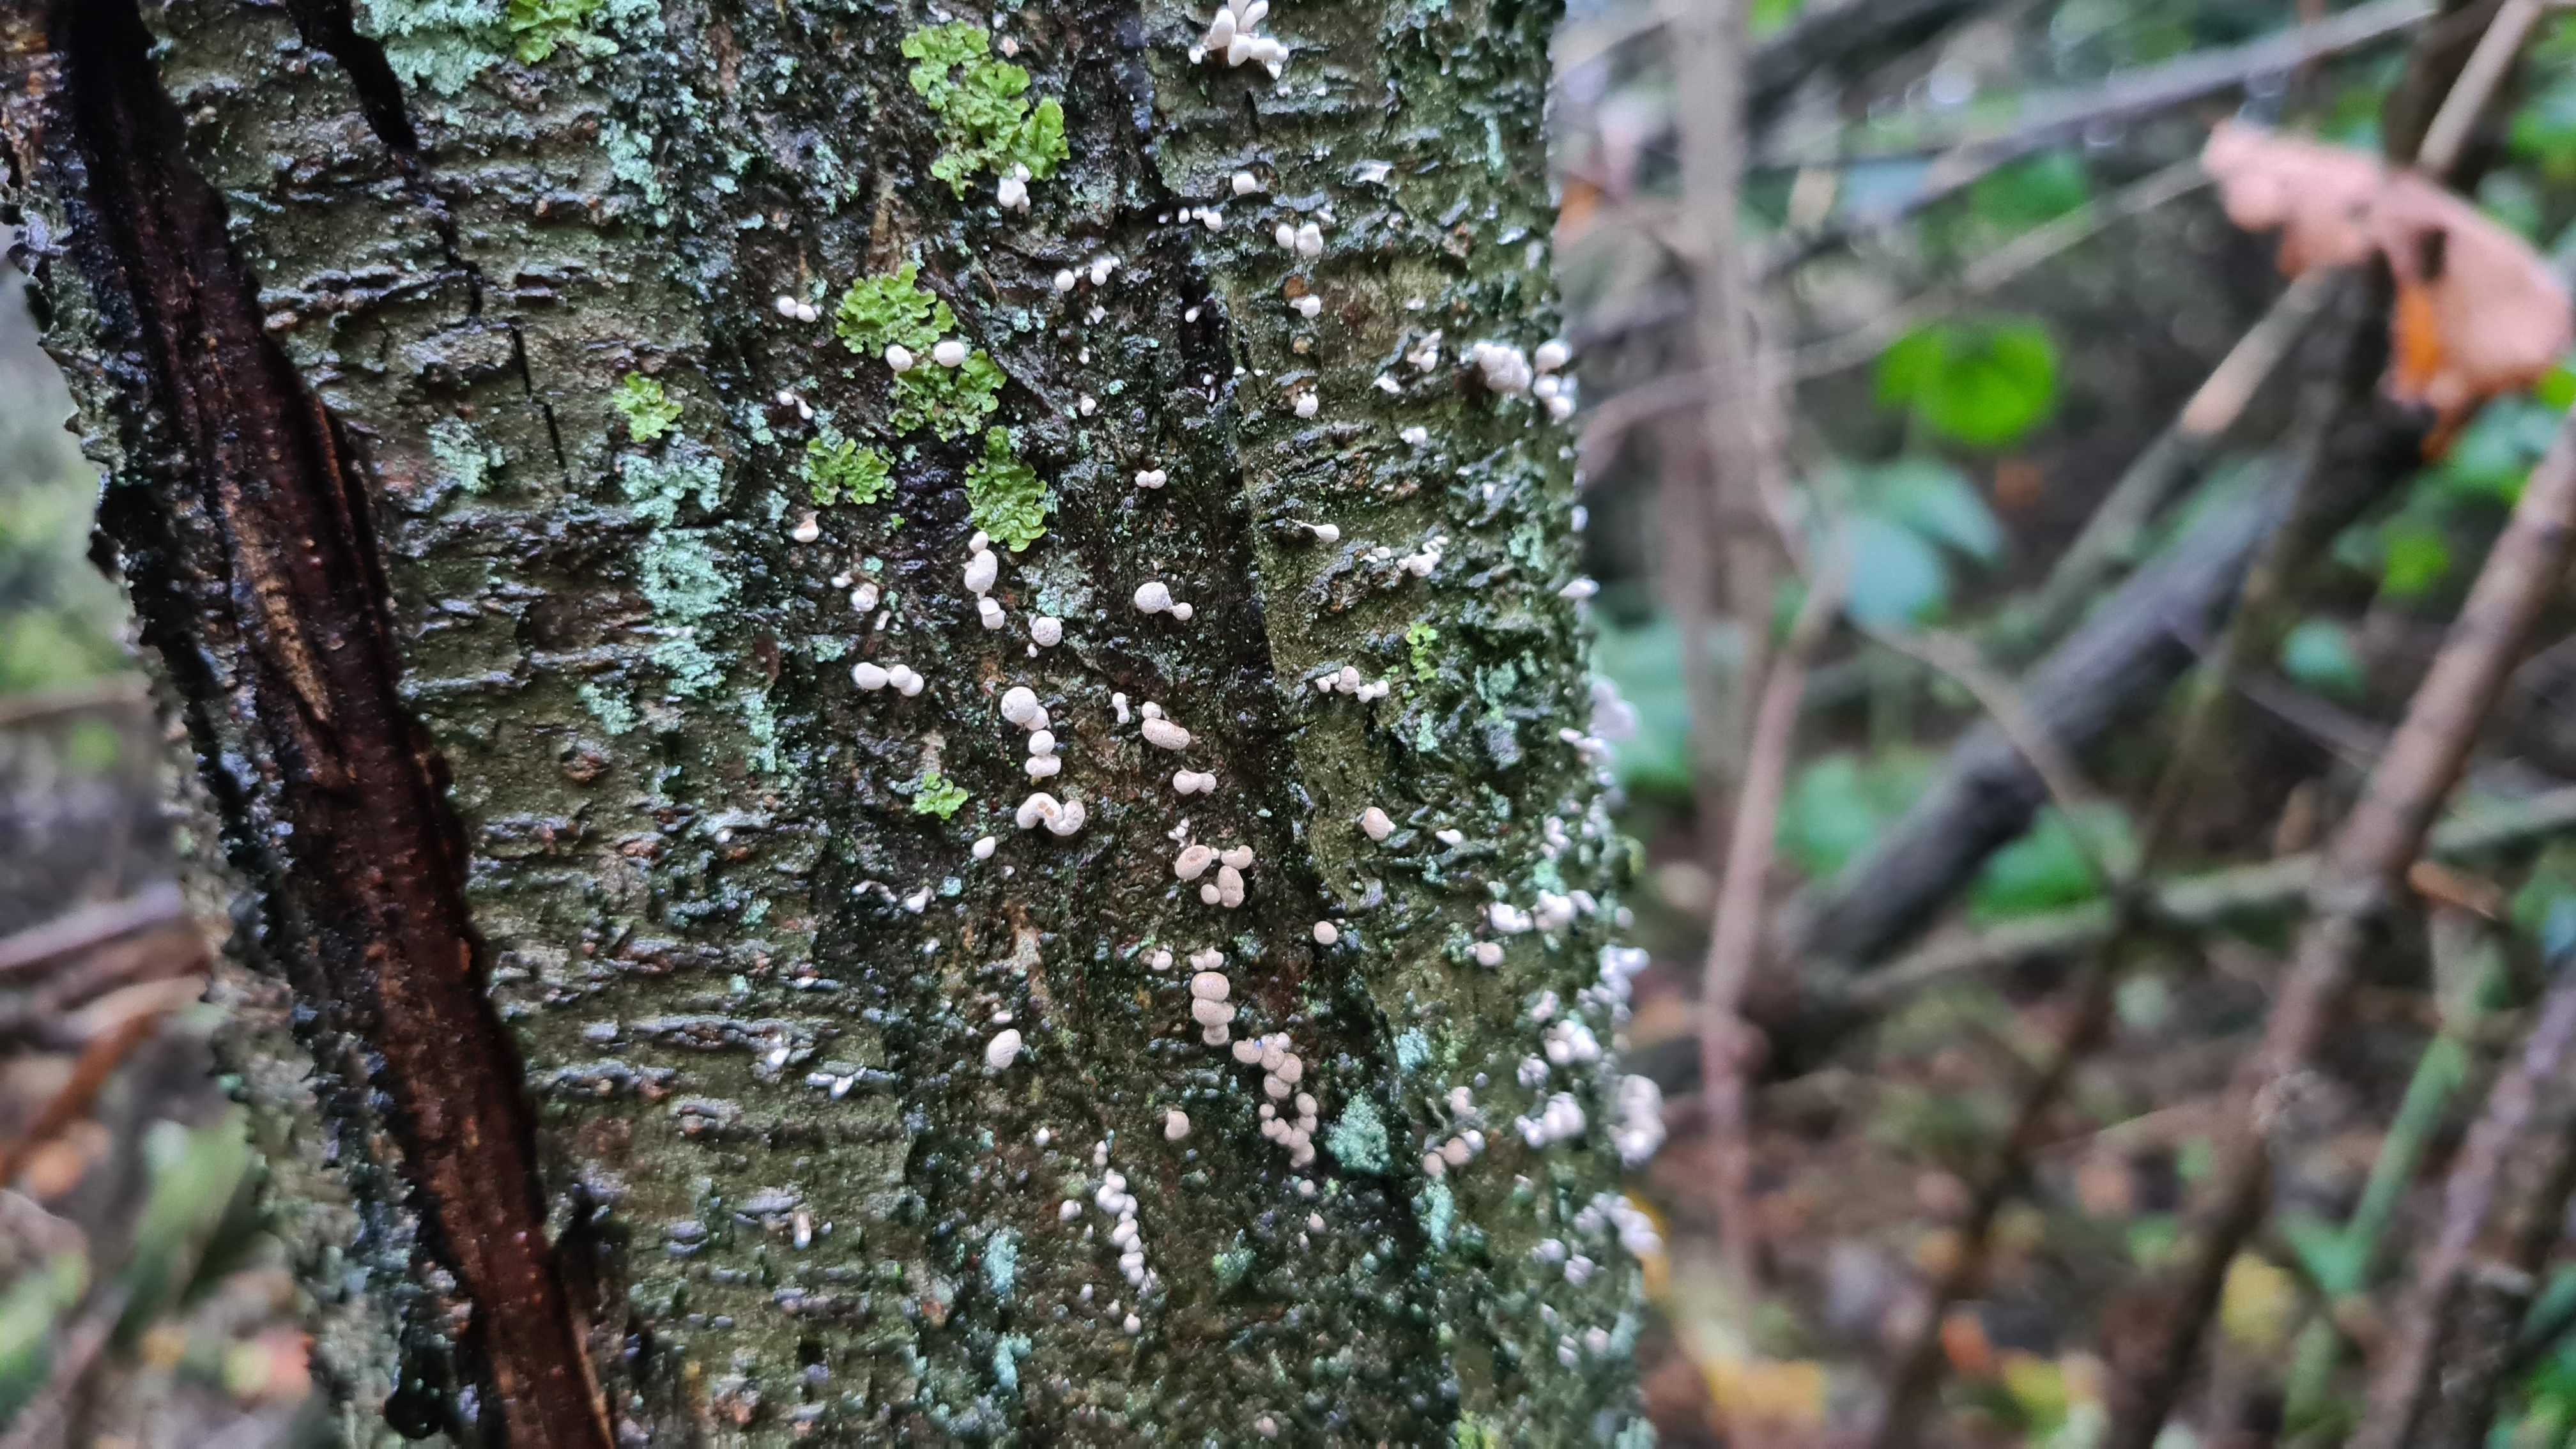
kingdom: Fungi
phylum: Basidiomycota
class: Atractiellomycetes
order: Atractiellales
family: Phleogenaceae
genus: Phleogena
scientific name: Phleogena faginea
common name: pudderkølle
